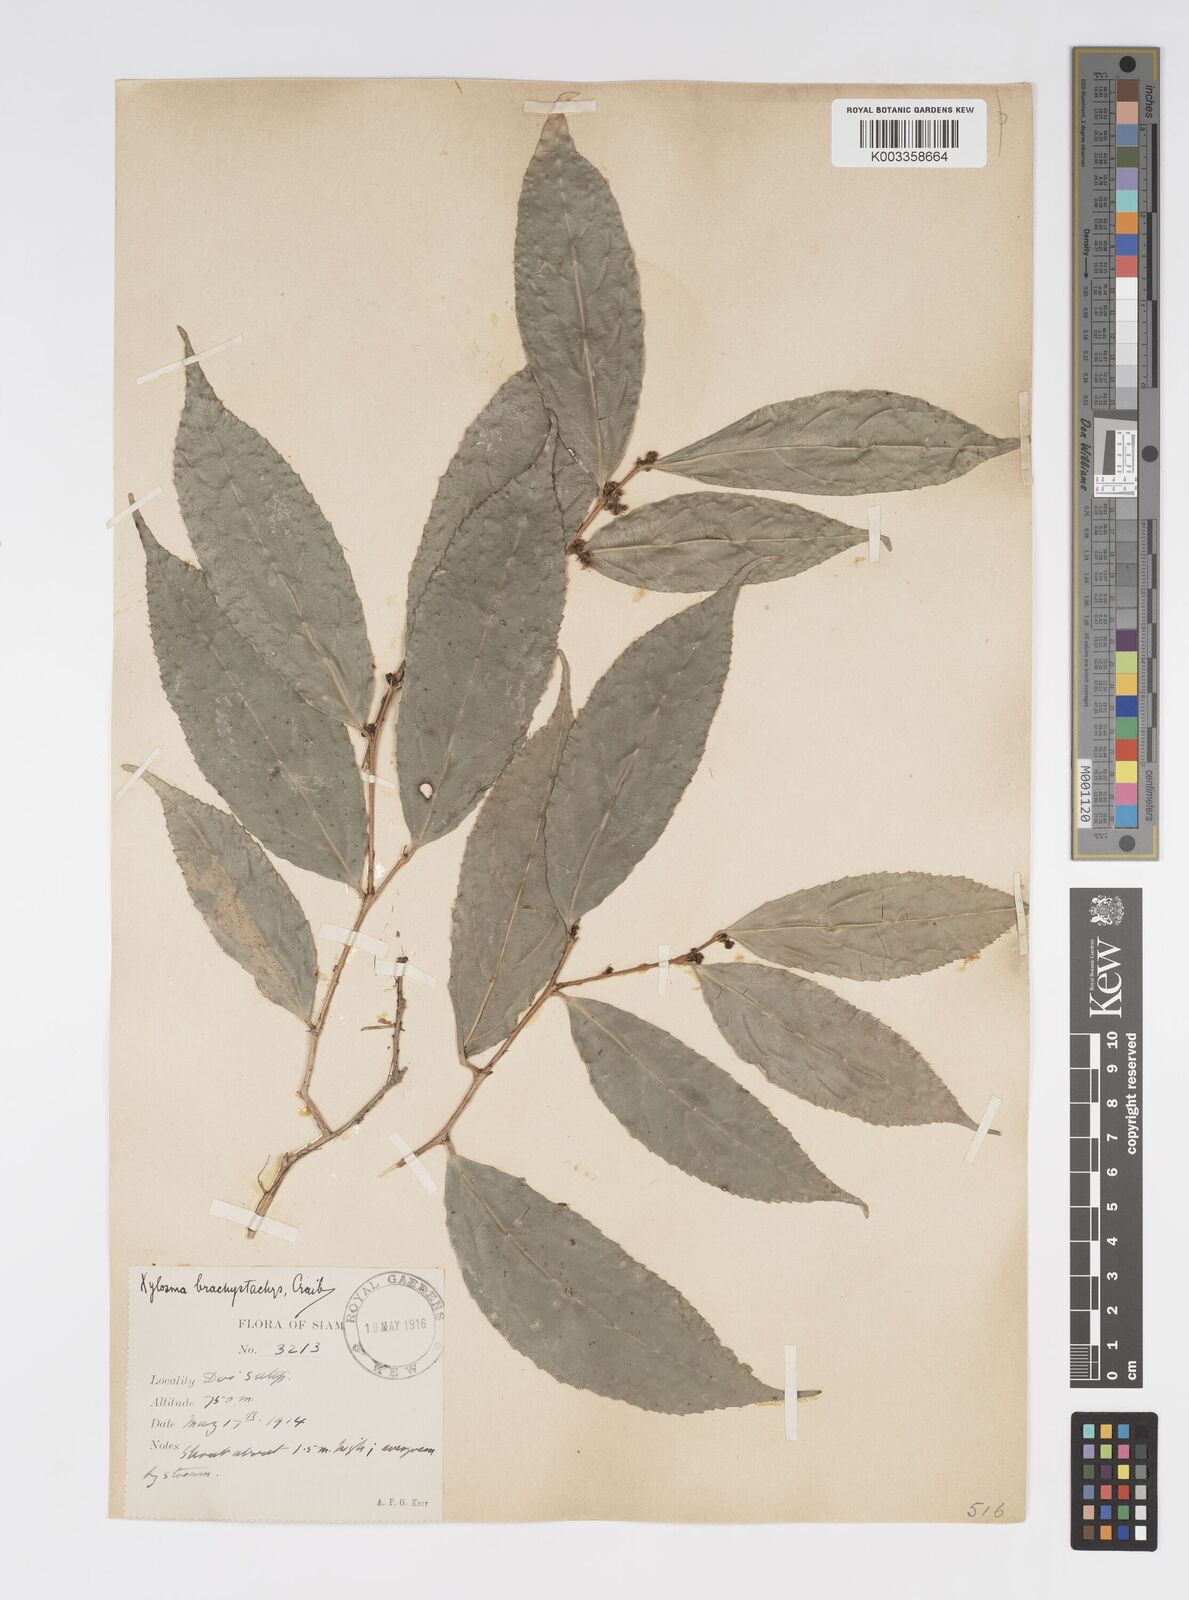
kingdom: Plantae
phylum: Tracheophyta
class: Magnoliopsida
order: Malpighiales
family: Salicaceae
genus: Xylosma
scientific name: Xylosma brachystachys
